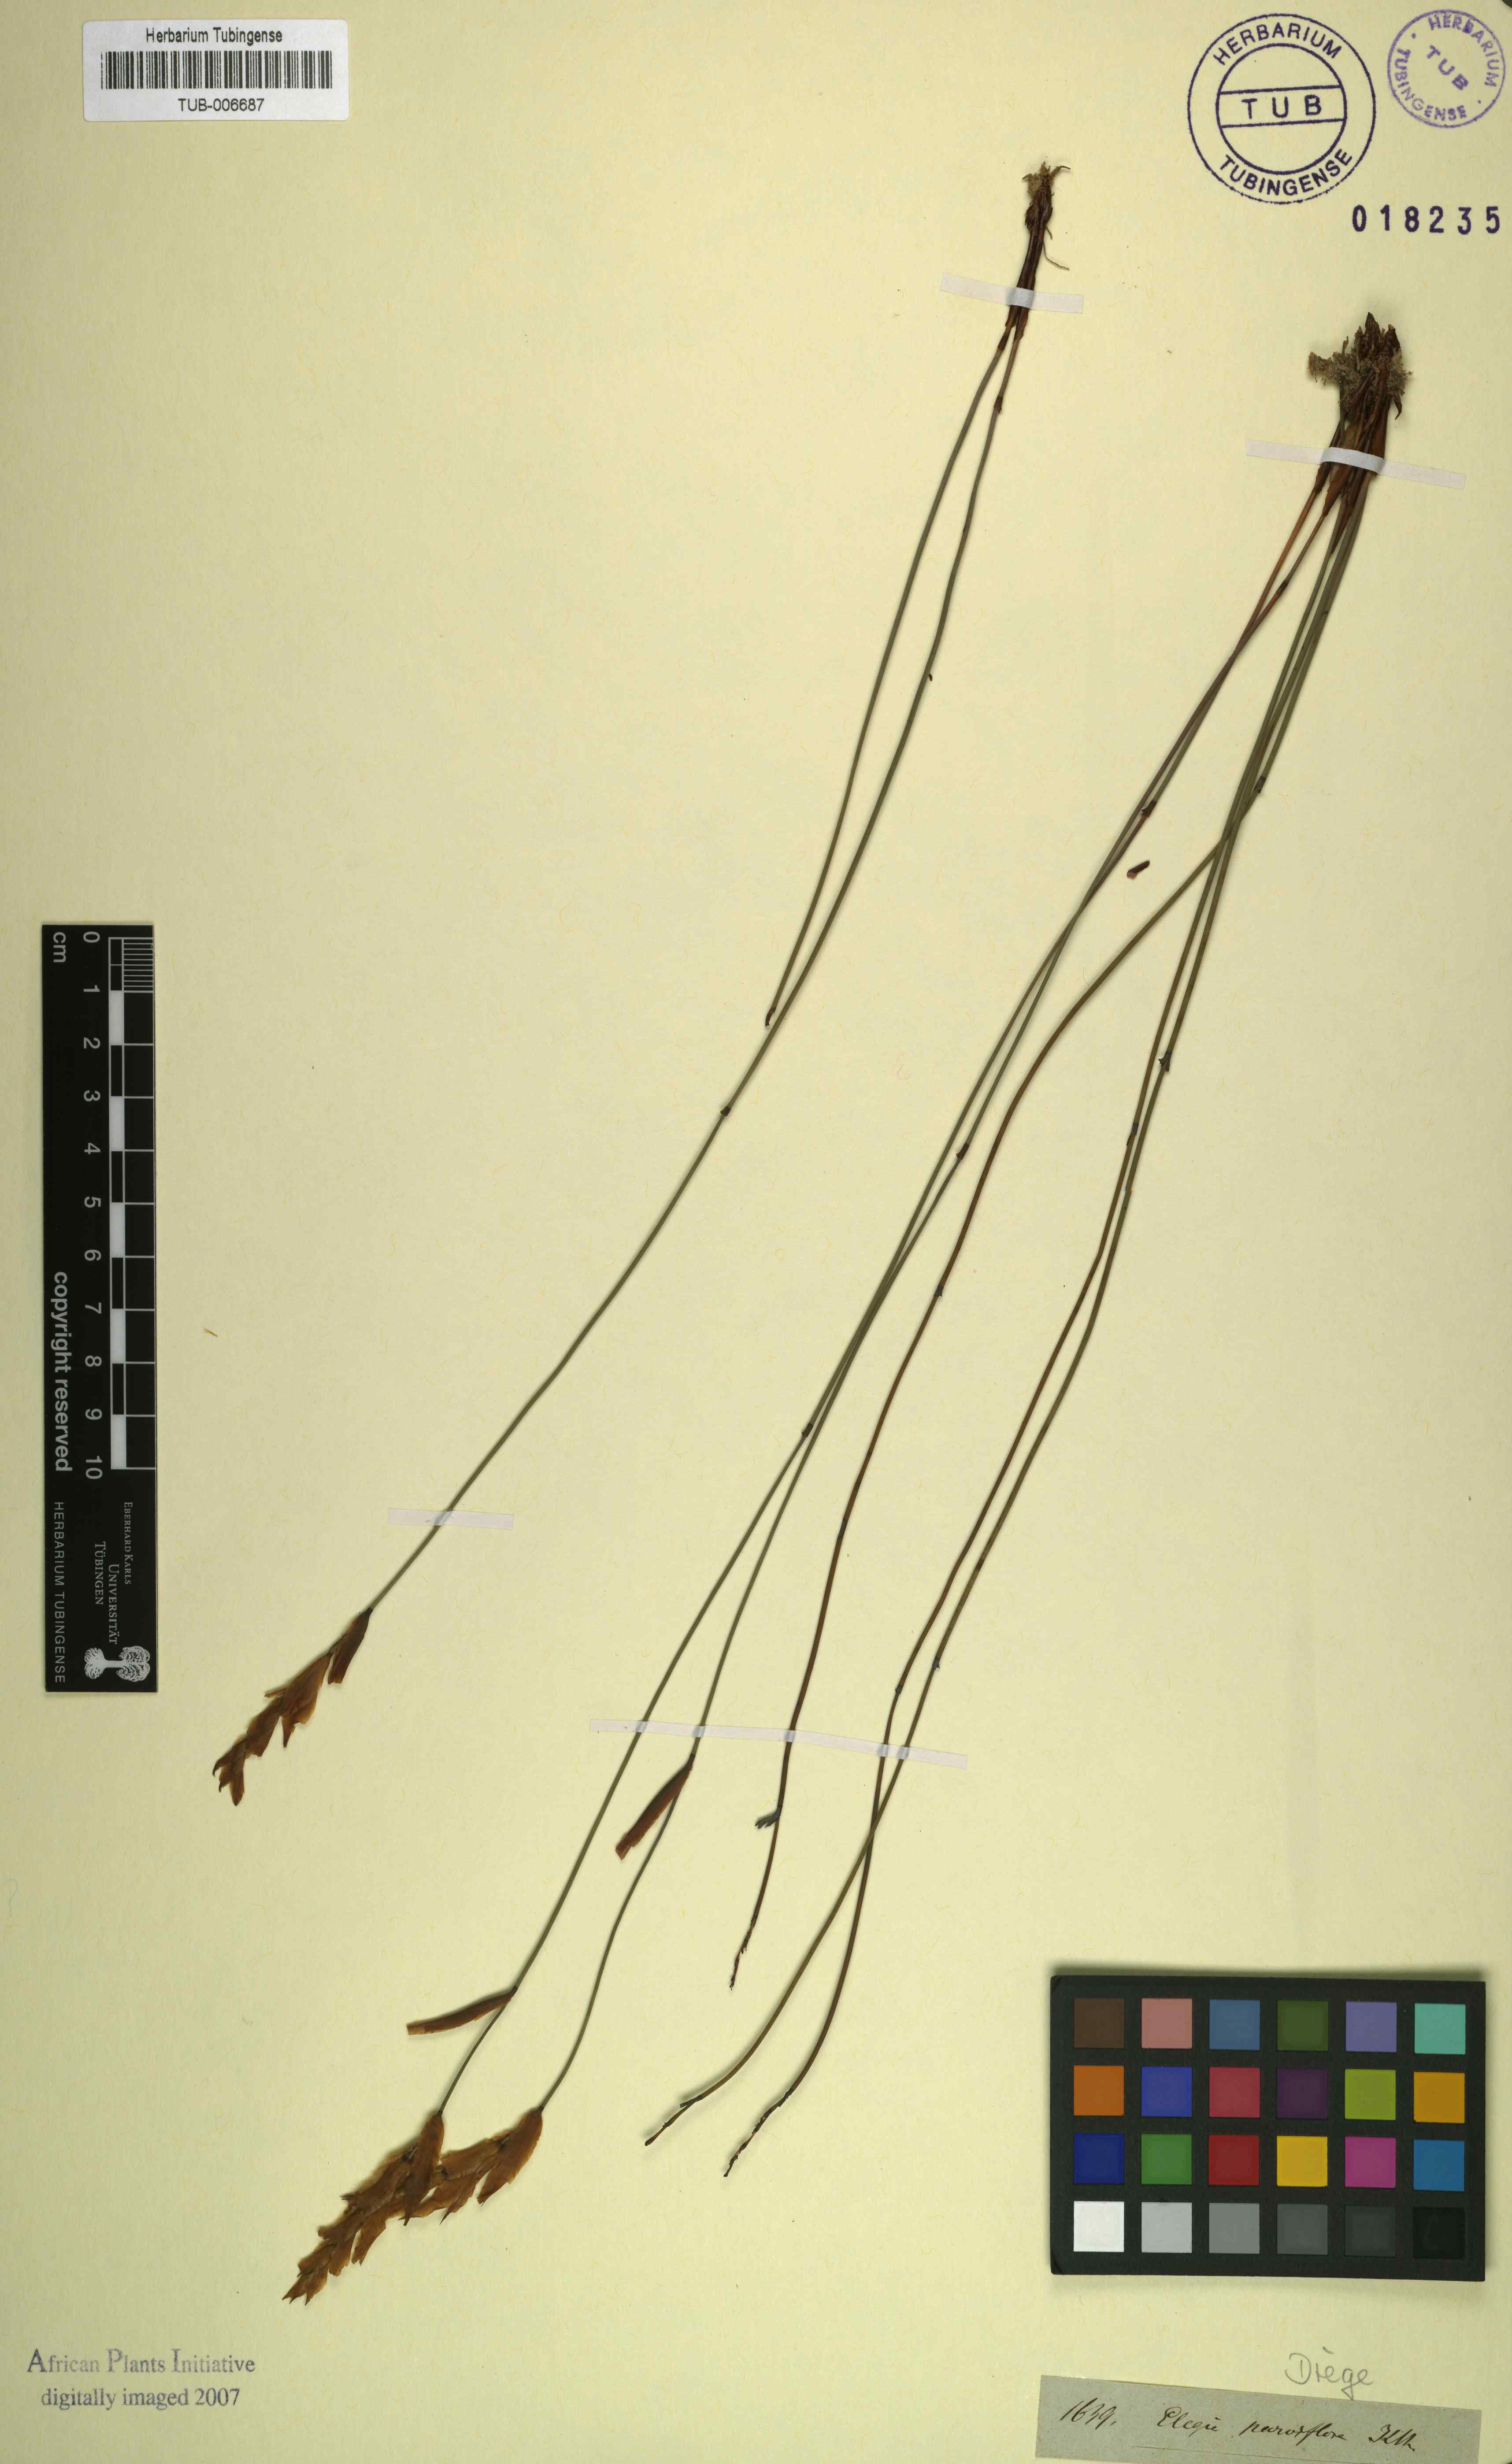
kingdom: Plantae
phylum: Tracheophyta
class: Liliopsida
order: Poales
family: Restionaceae
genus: Cannomois
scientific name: Cannomois parviflora
